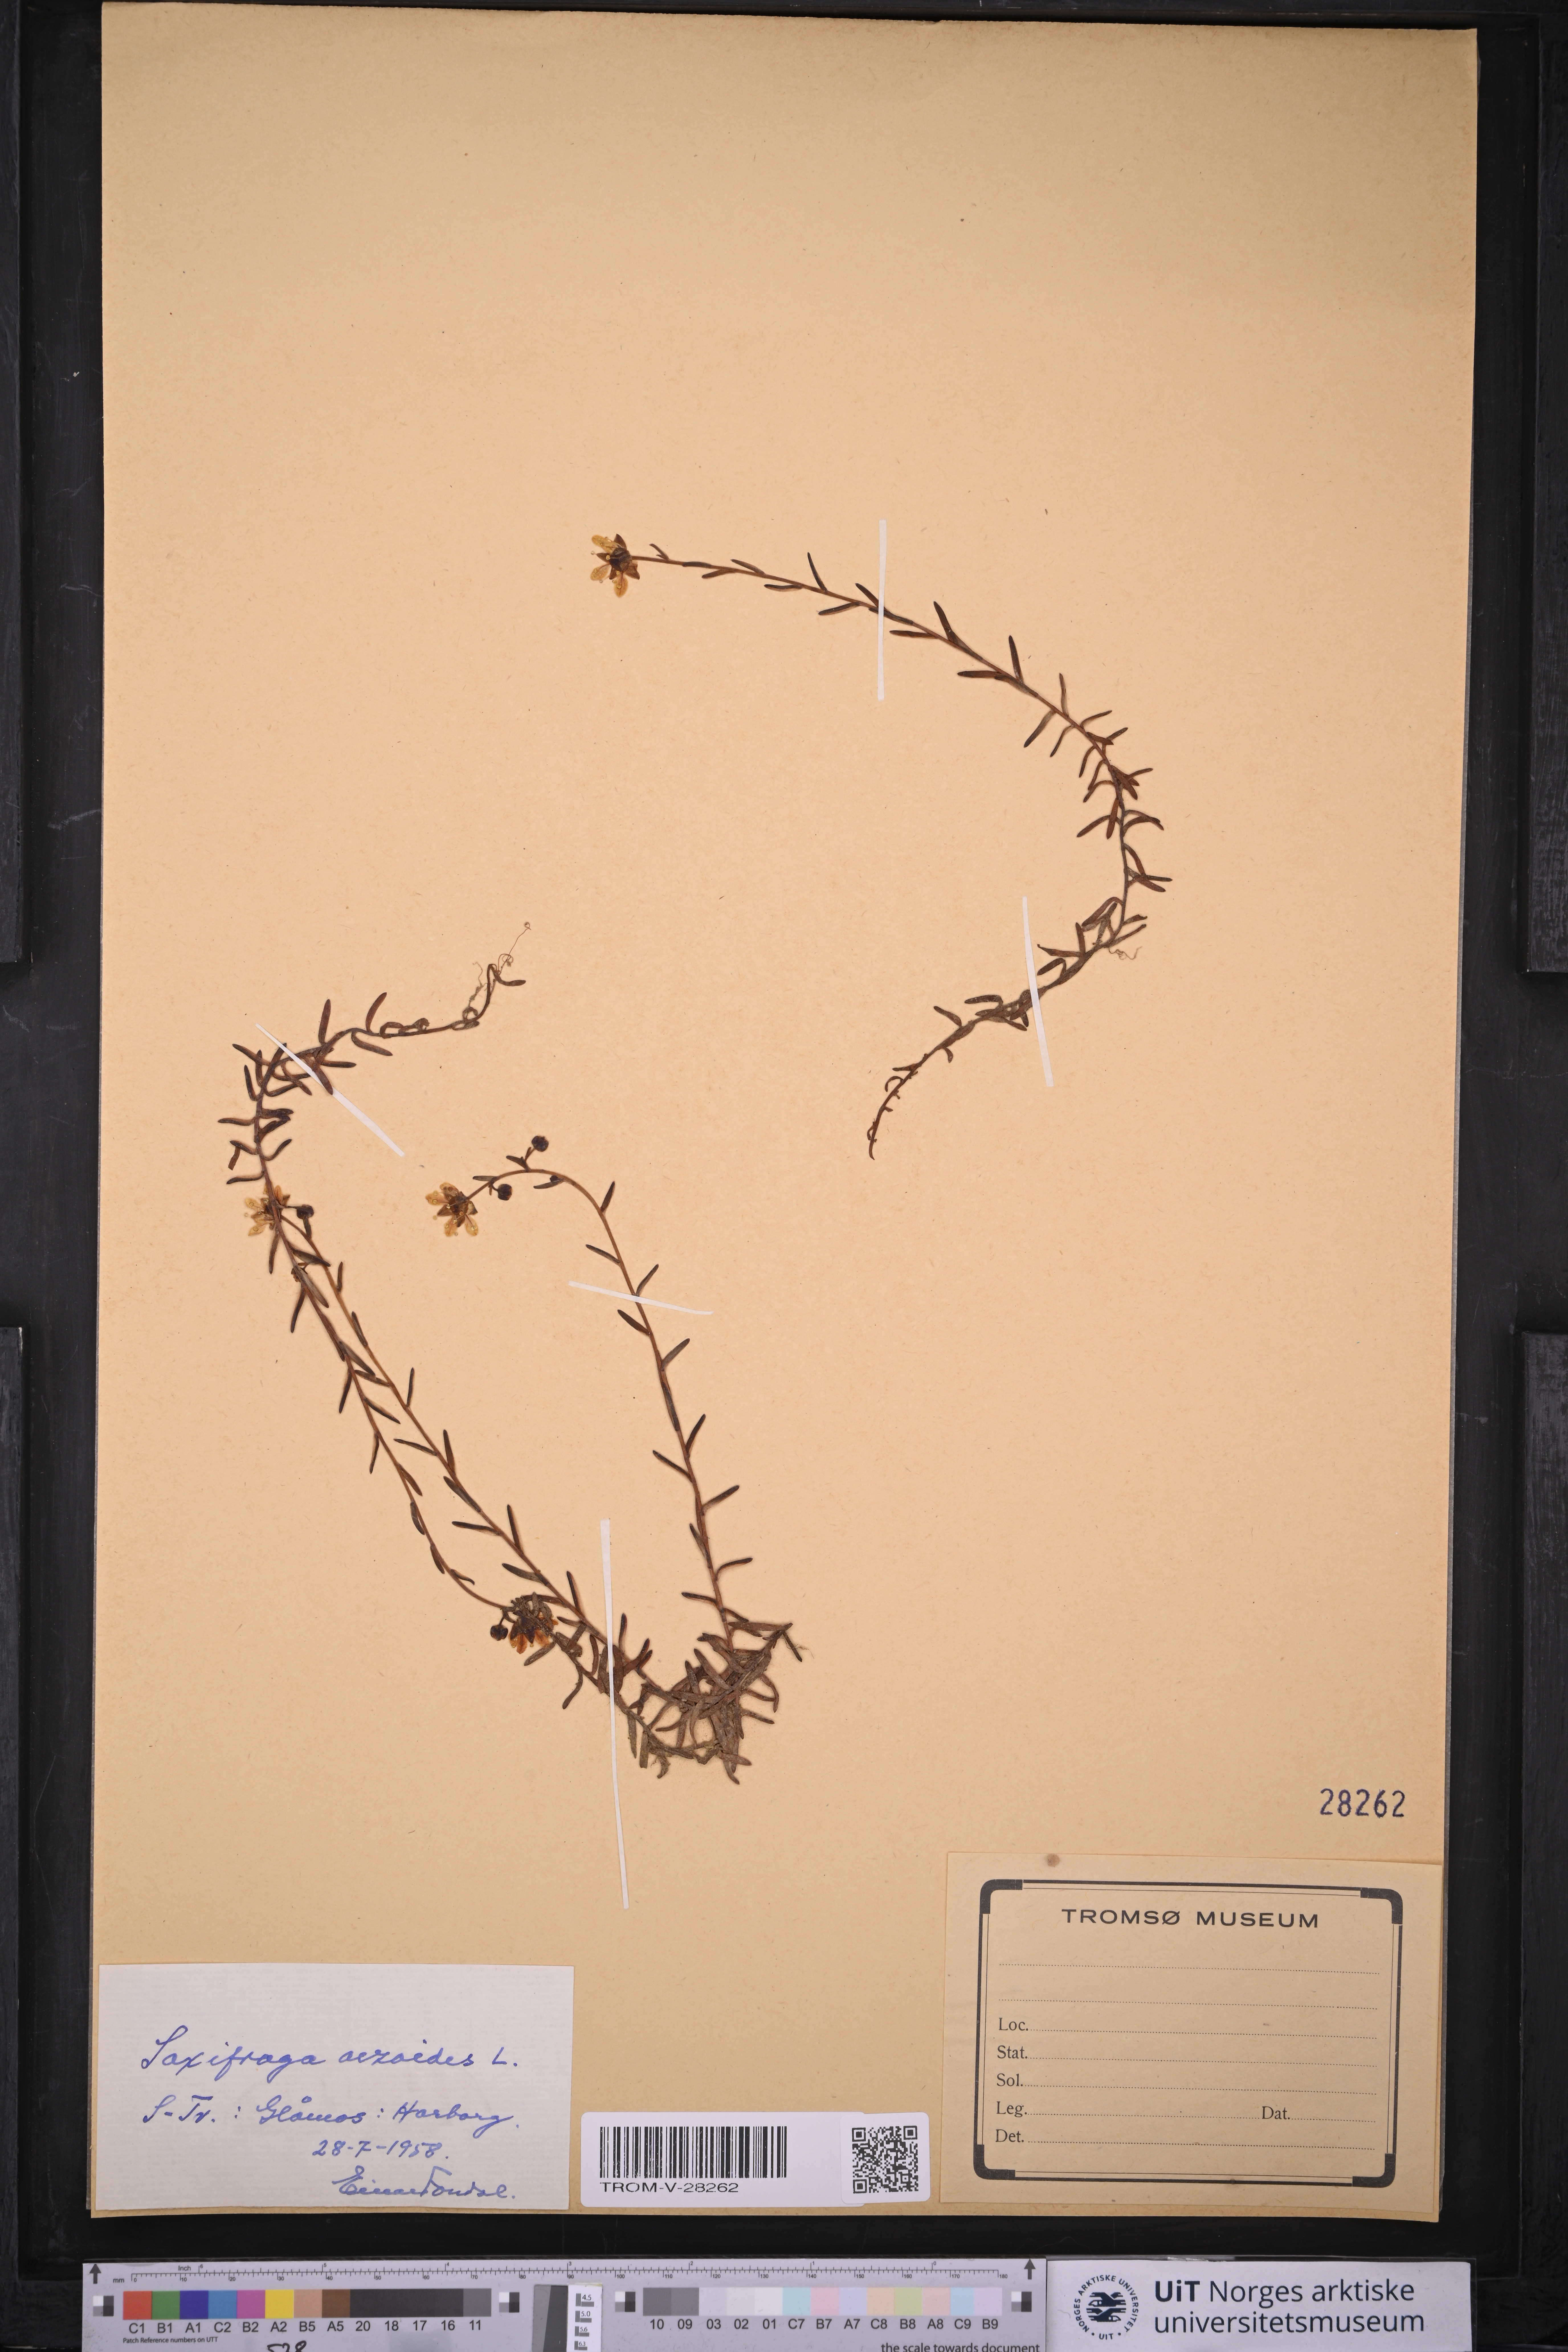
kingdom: Plantae
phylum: Tracheophyta
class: Magnoliopsida
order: Saxifragales
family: Saxifragaceae
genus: Saxifraga
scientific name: Saxifraga aizoides
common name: Yellow mountain saxifrage
